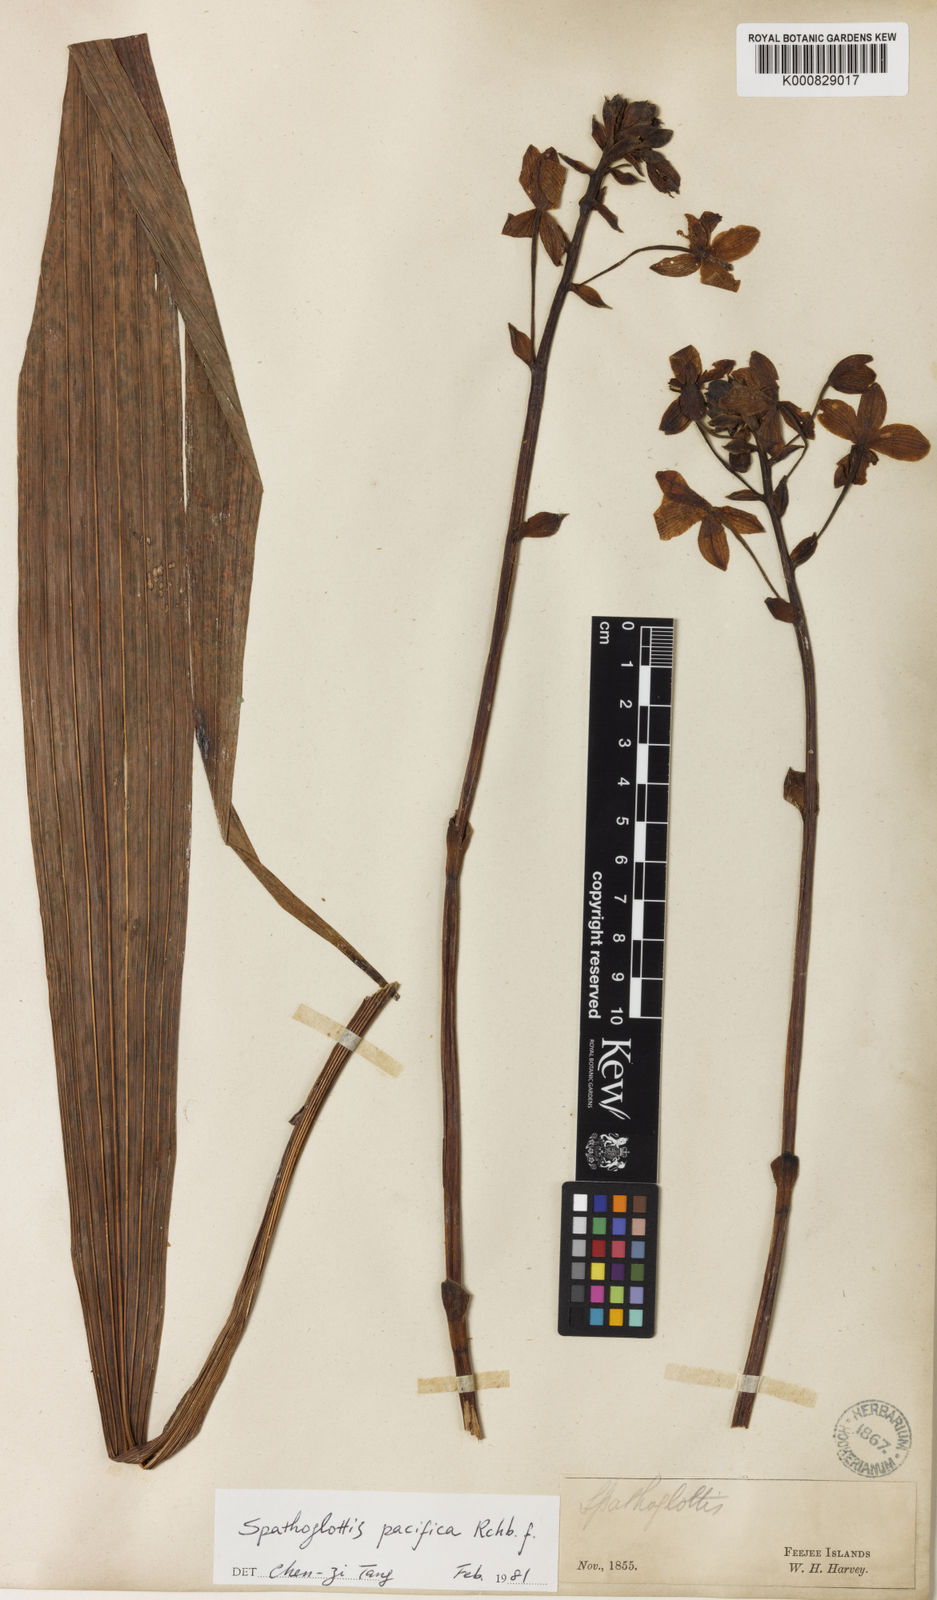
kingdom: Plantae
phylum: Tracheophyta
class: Liliopsida
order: Asparagales
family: Orchidaceae
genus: Spathoglottis
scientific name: Spathoglottis pacifica
